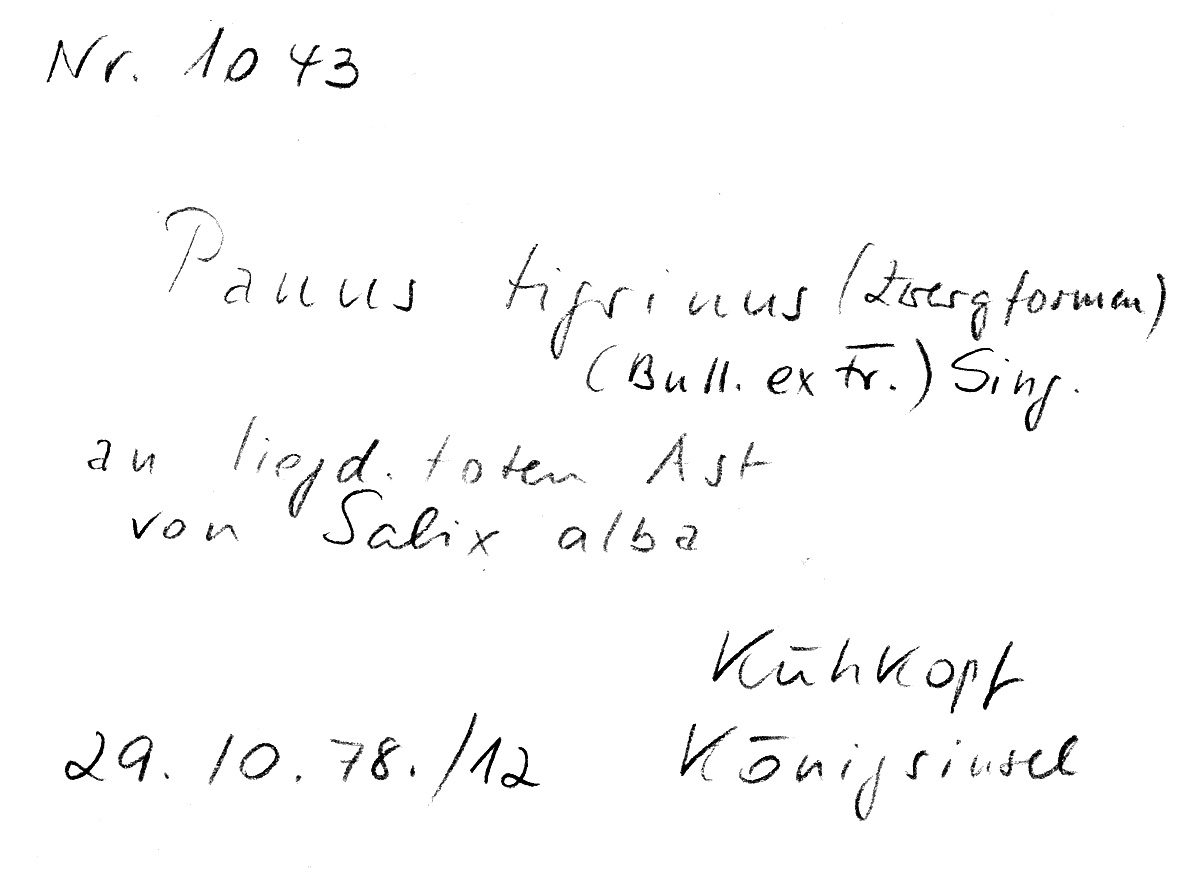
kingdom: Fungi
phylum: Basidiomycota
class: Agaricomycetes
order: Polyporales
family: Polyporaceae
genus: Lentinus
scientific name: Lentinus tigrinus
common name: Tiger sawgill
